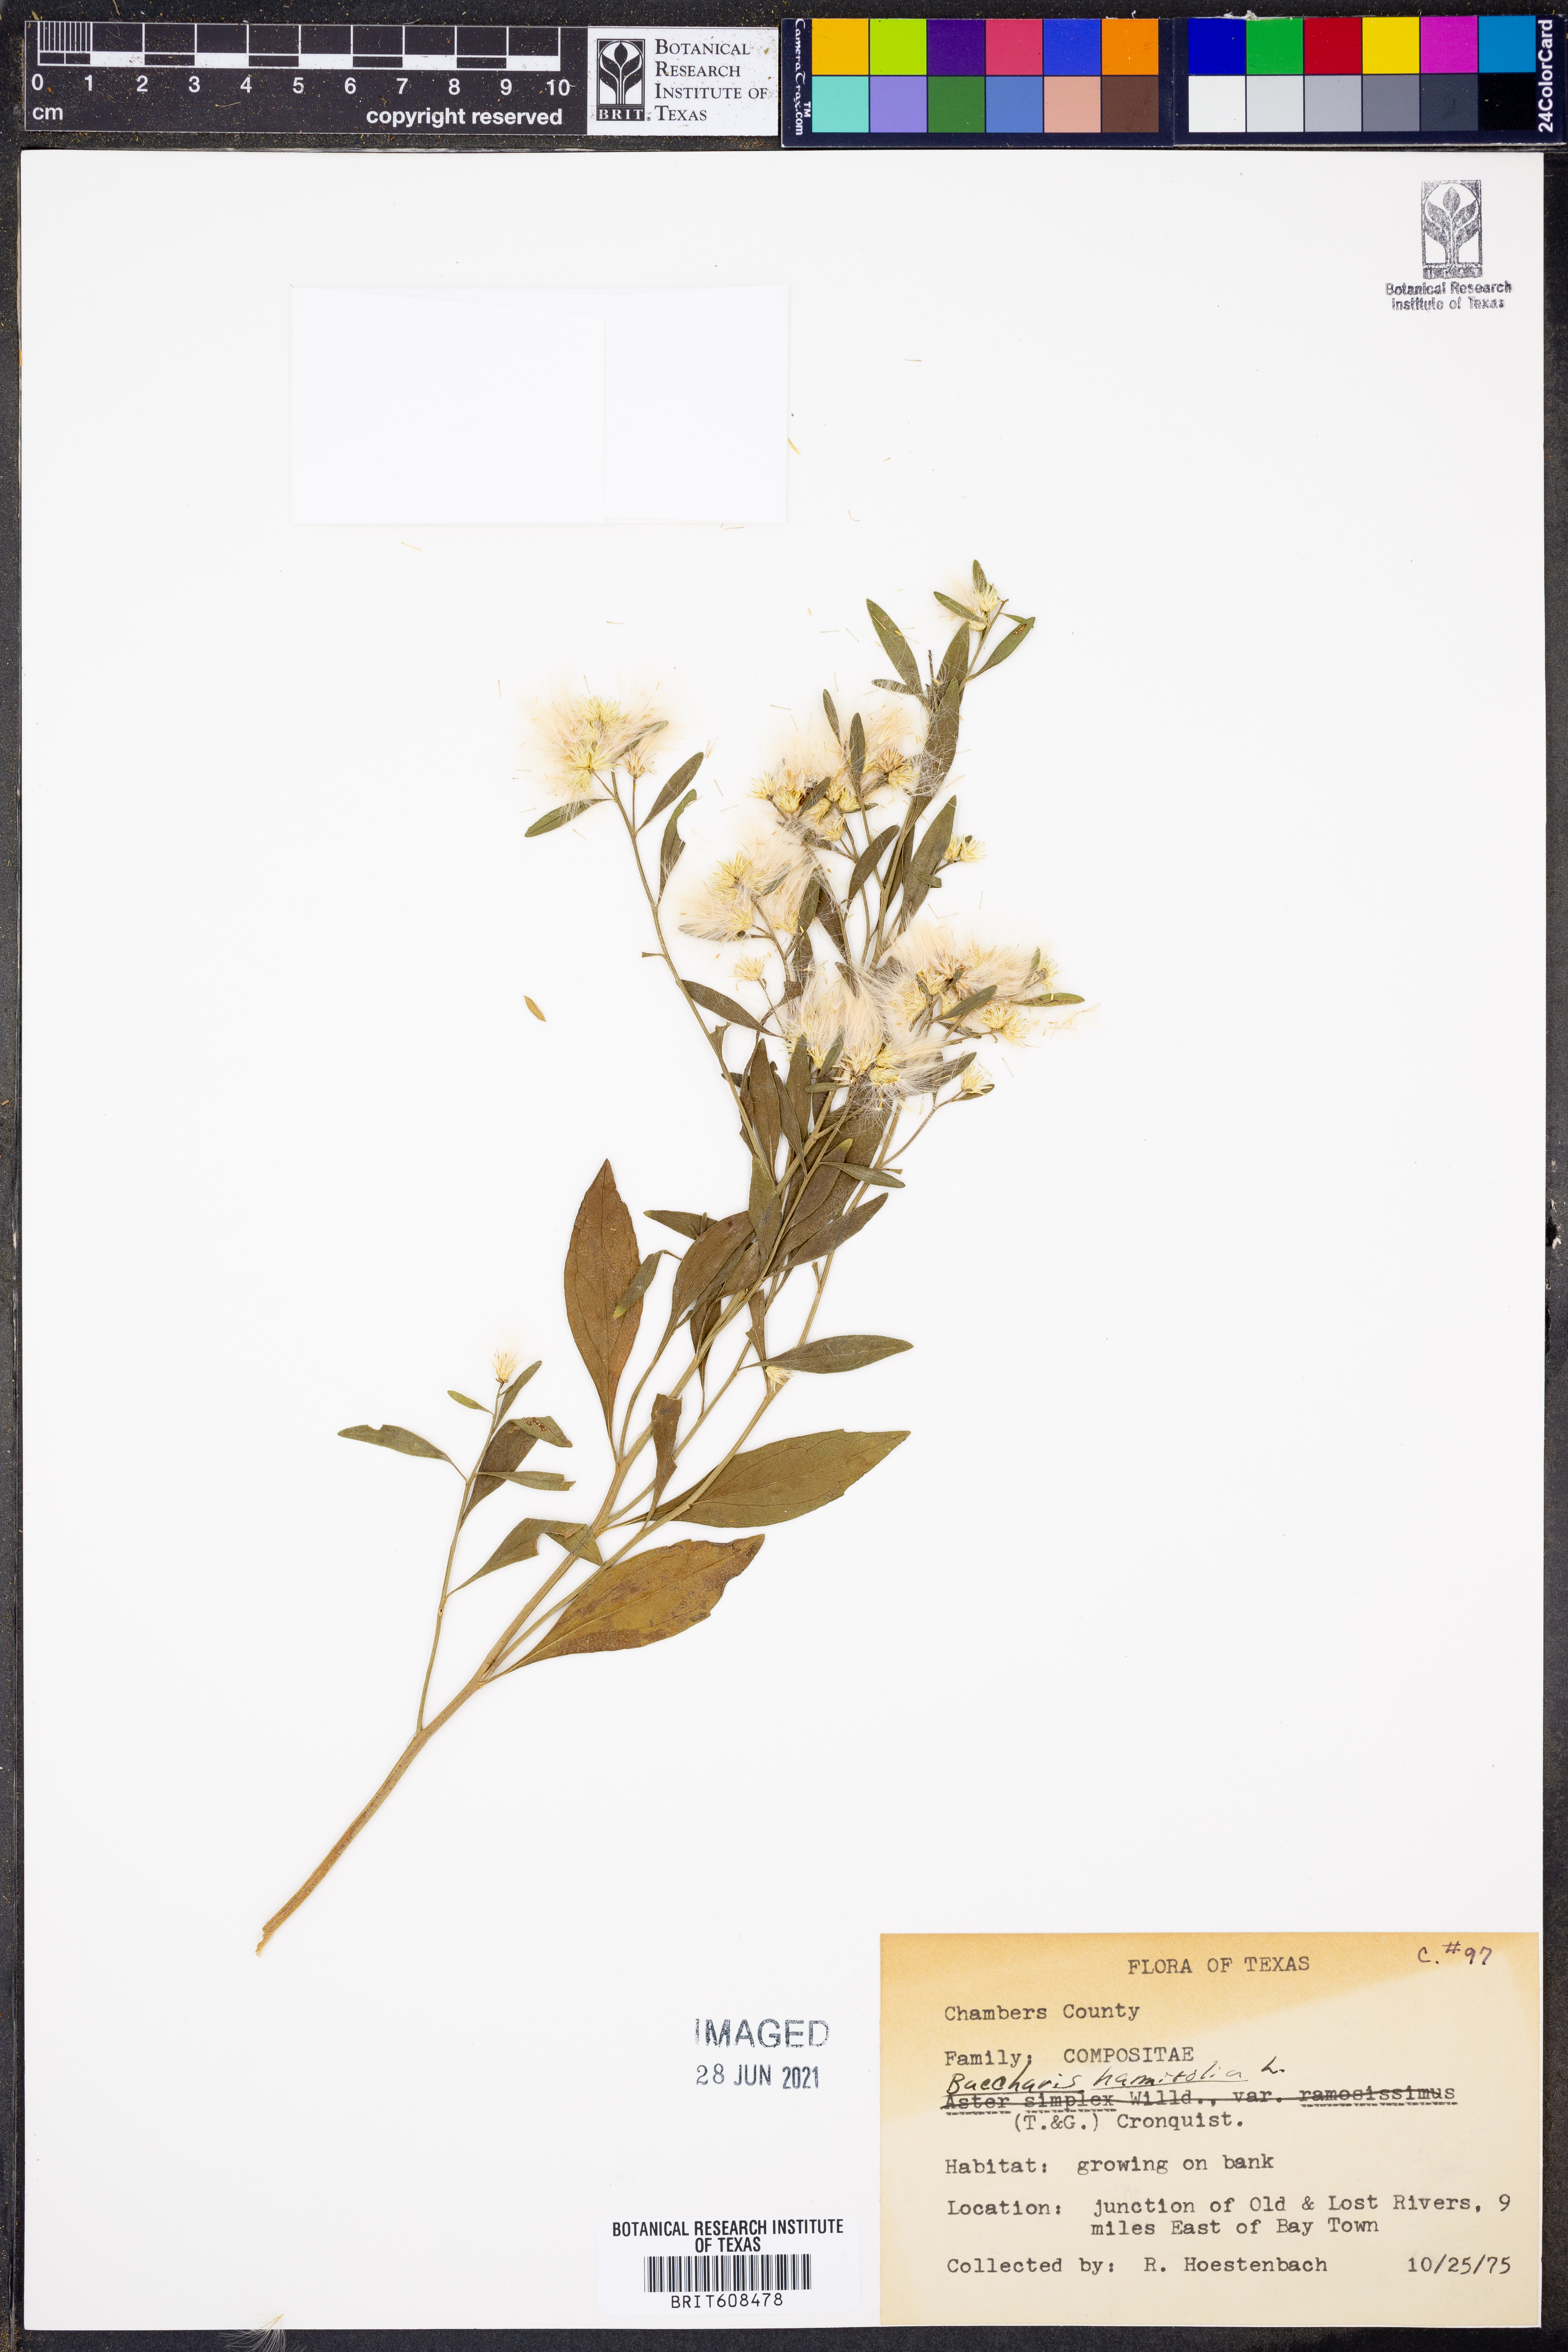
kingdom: Plantae
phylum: Tracheophyta
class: Magnoliopsida
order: Asterales
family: Asteraceae
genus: Nidorella
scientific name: Nidorella ivifolia
